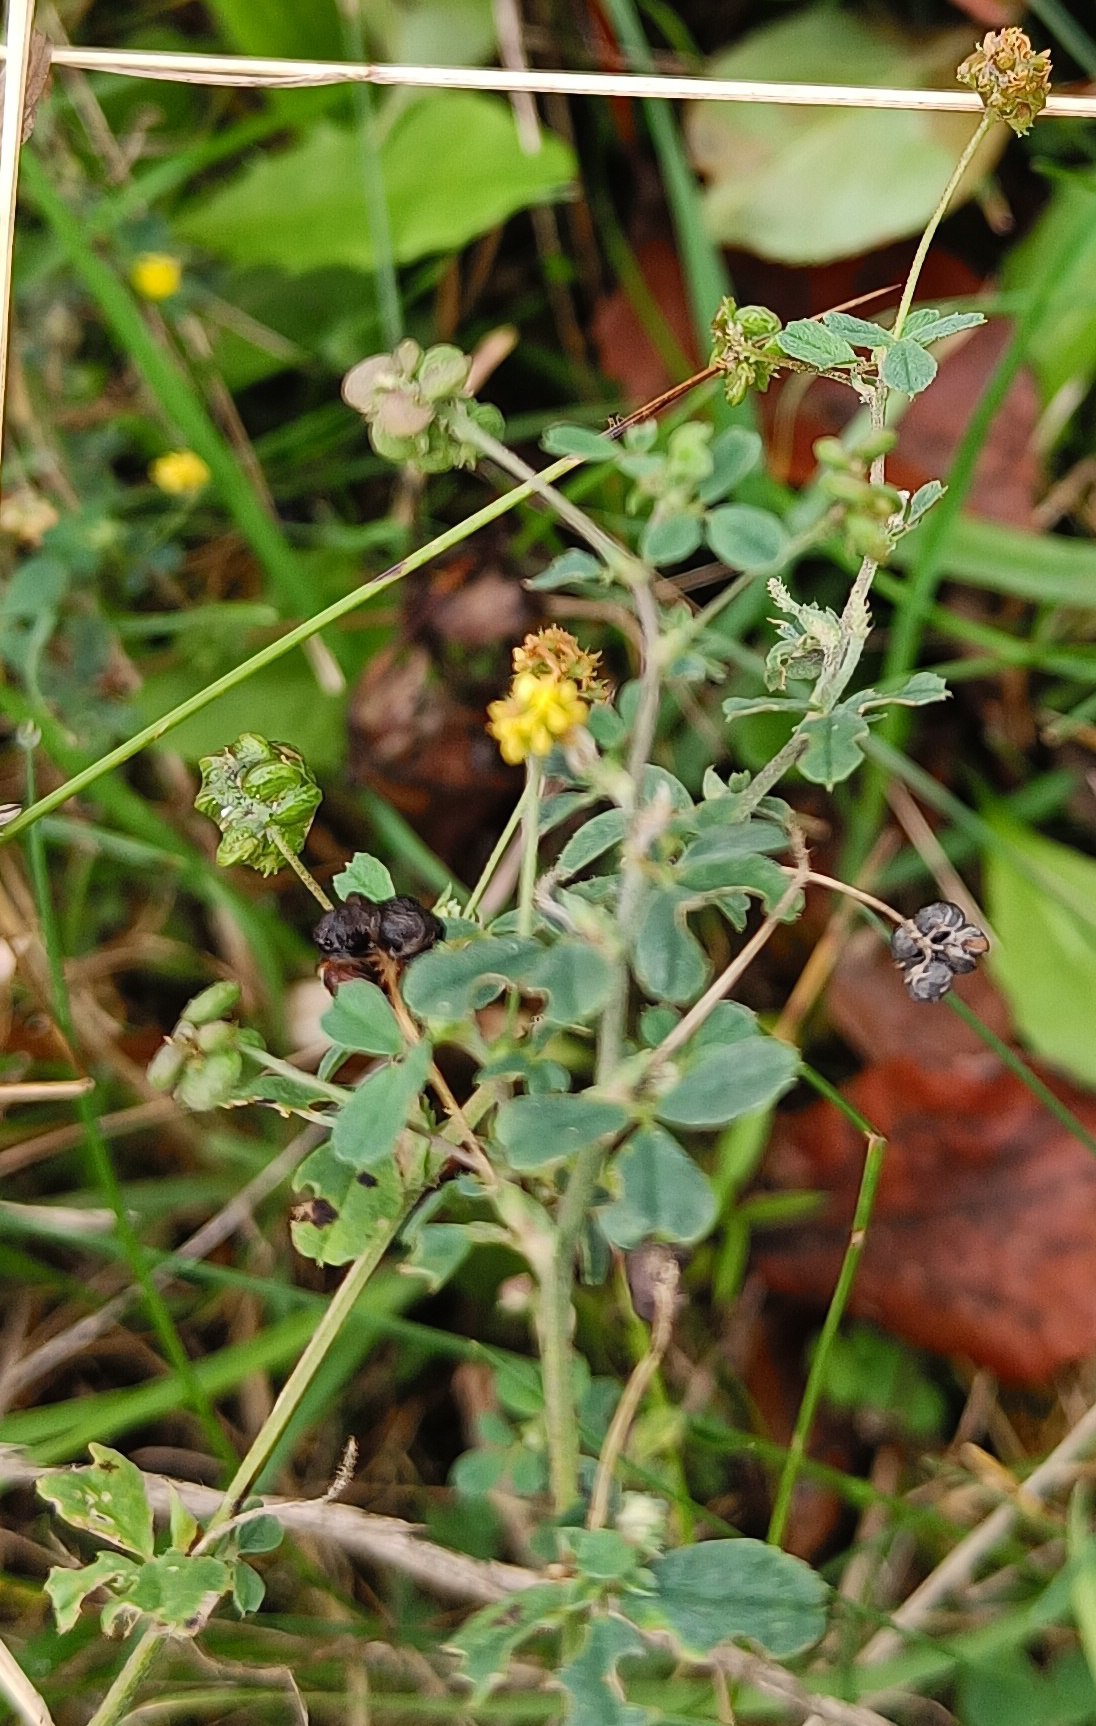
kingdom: Plantae
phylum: Tracheophyta
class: Magnoliopsida
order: Fabales
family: Fabaceae
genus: Medicago
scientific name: Medicago lupulina
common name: Humle-sneglebælg
